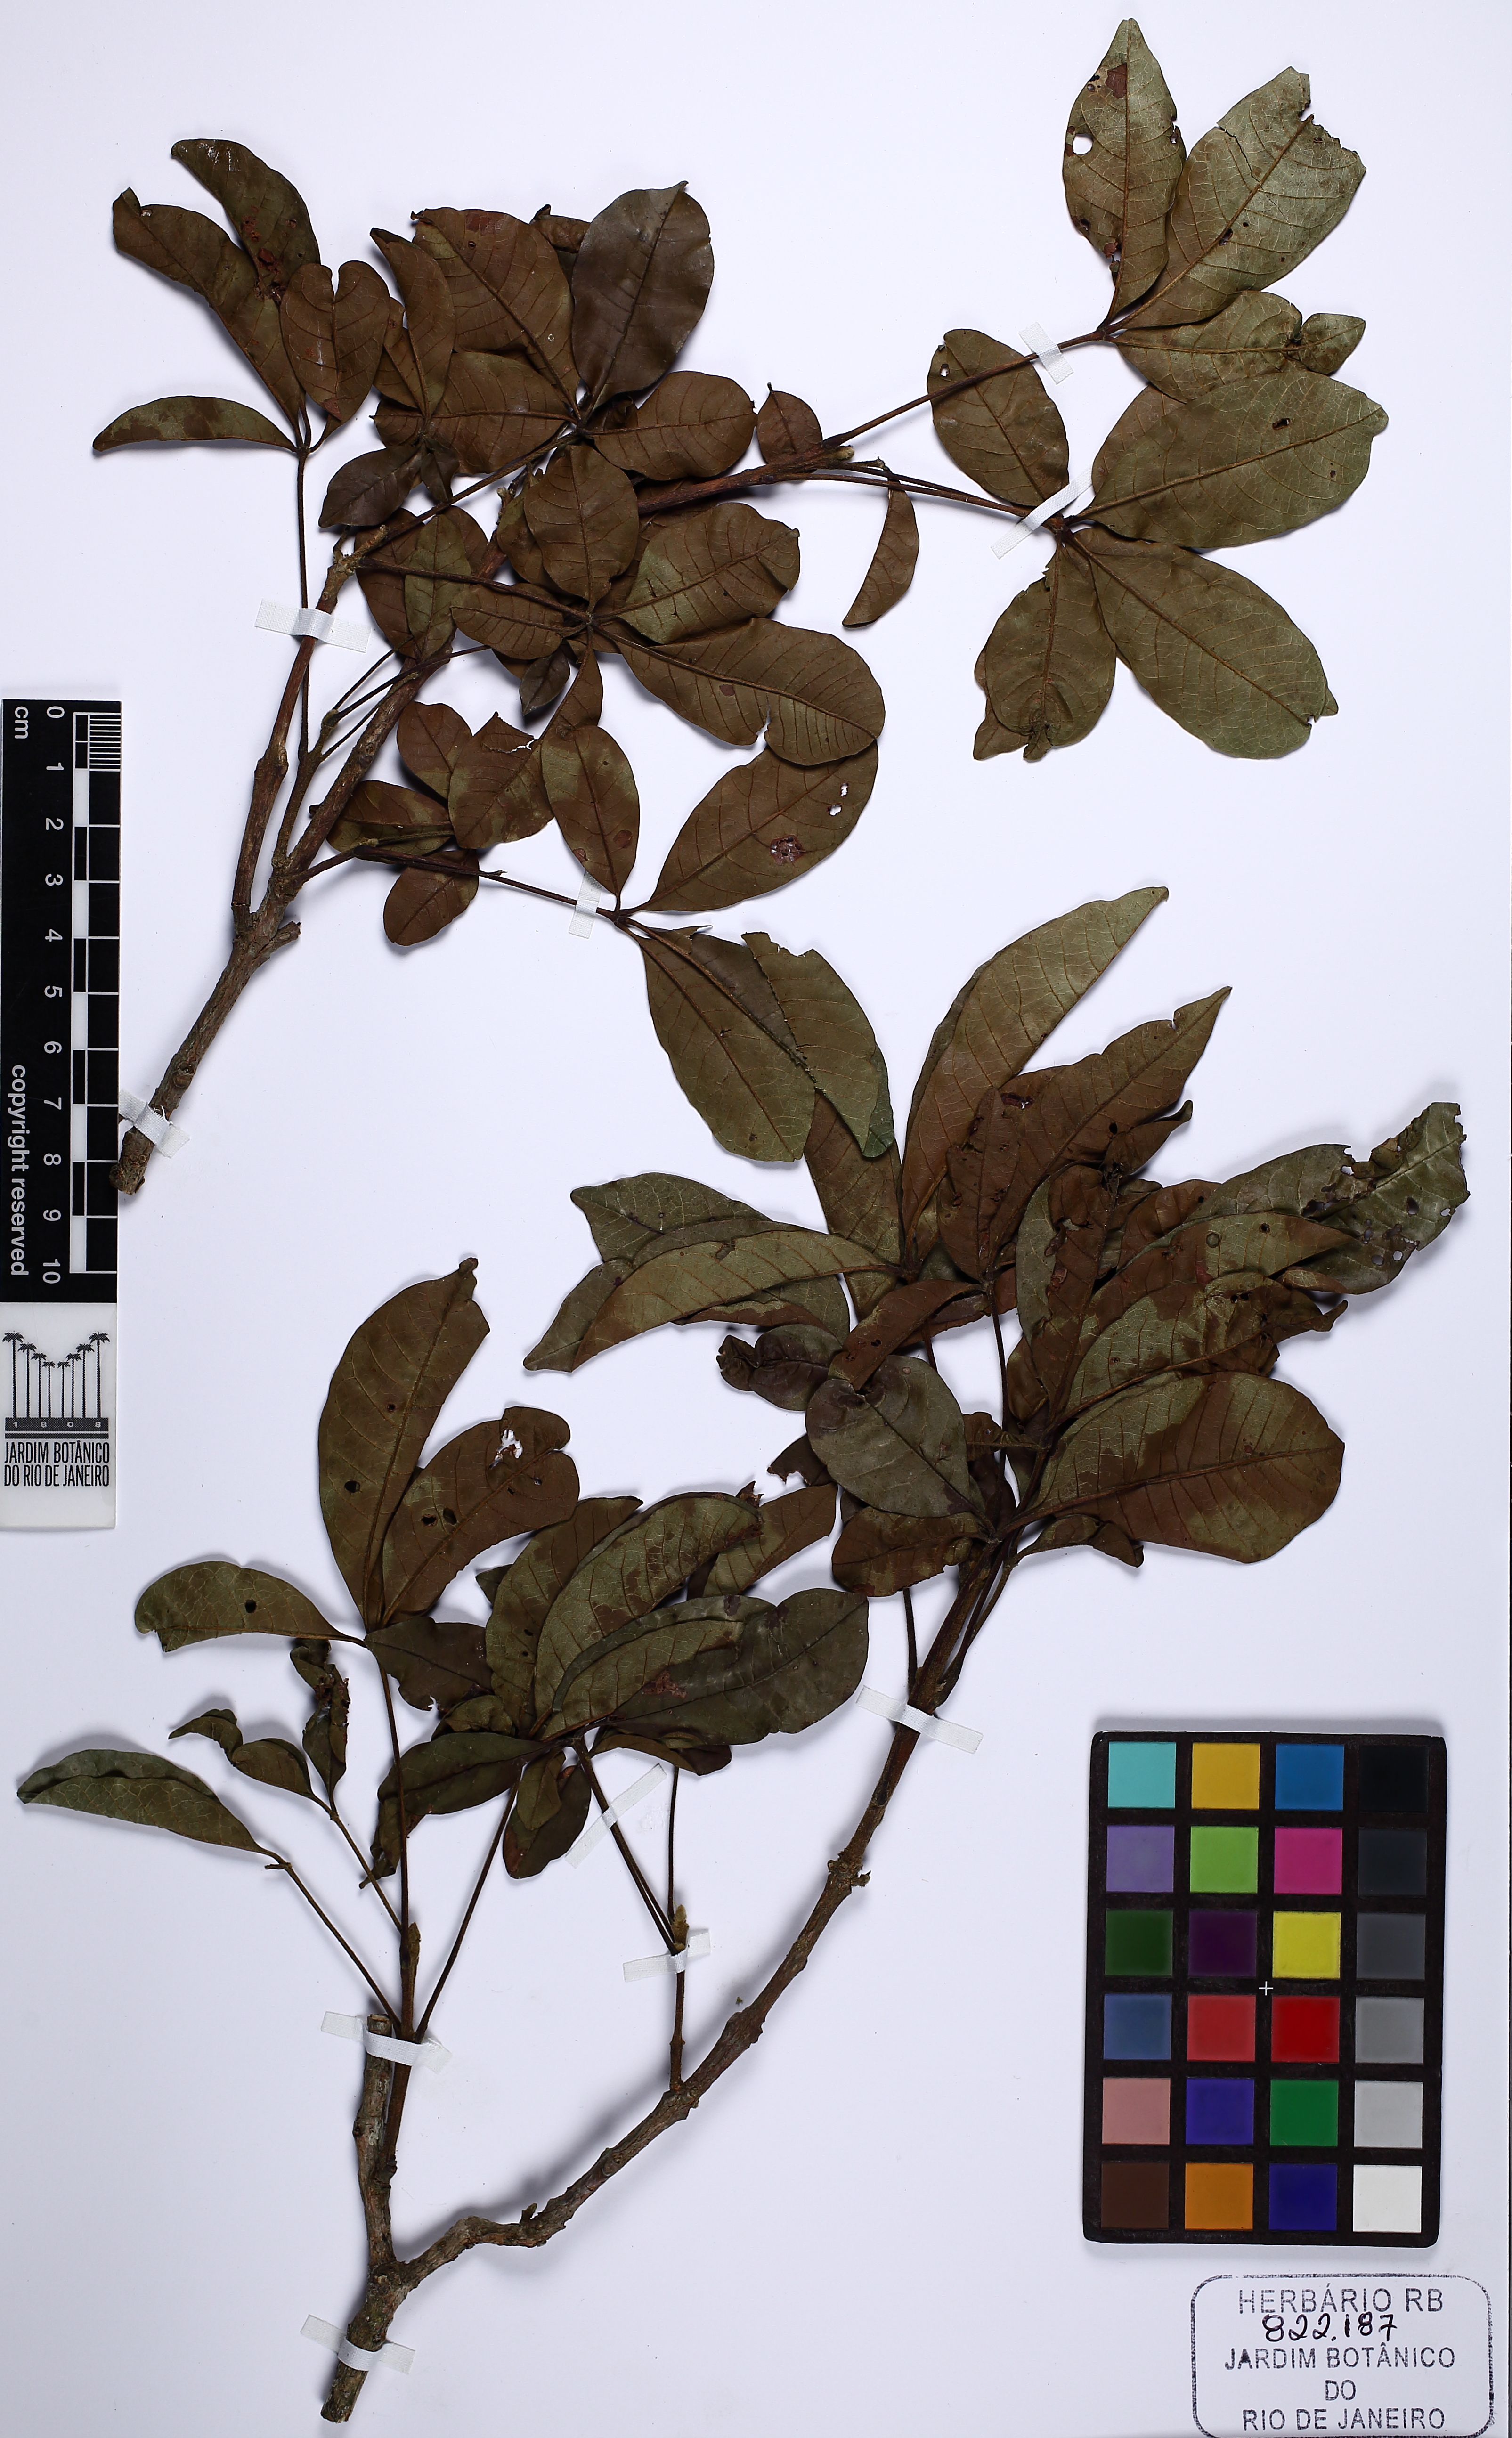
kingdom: Plantae
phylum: Tracheophyta
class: Magnoliopsida
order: Lamiales
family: Lamiaceae
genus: Vitex
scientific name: Vitex polygama
